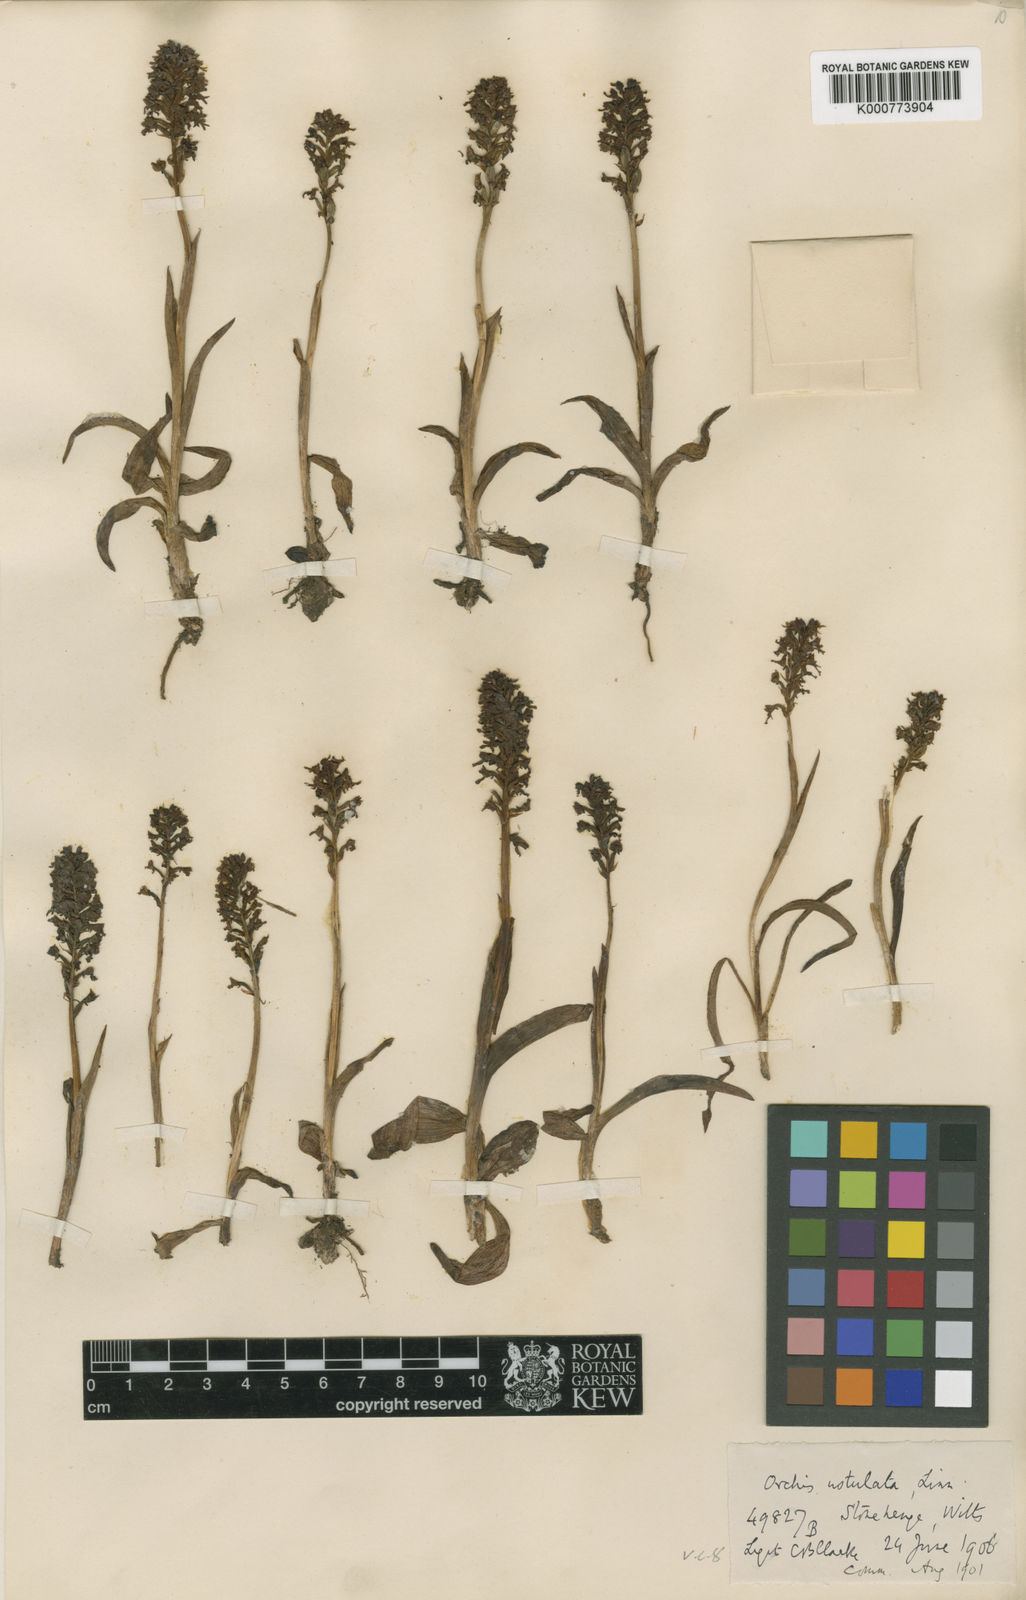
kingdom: Plantae
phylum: Tracheophyta
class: Liliopsida
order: Asparagales
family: Orchidaceae
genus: Neotinea
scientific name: Neotinea ustulata
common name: Burnt orchid
